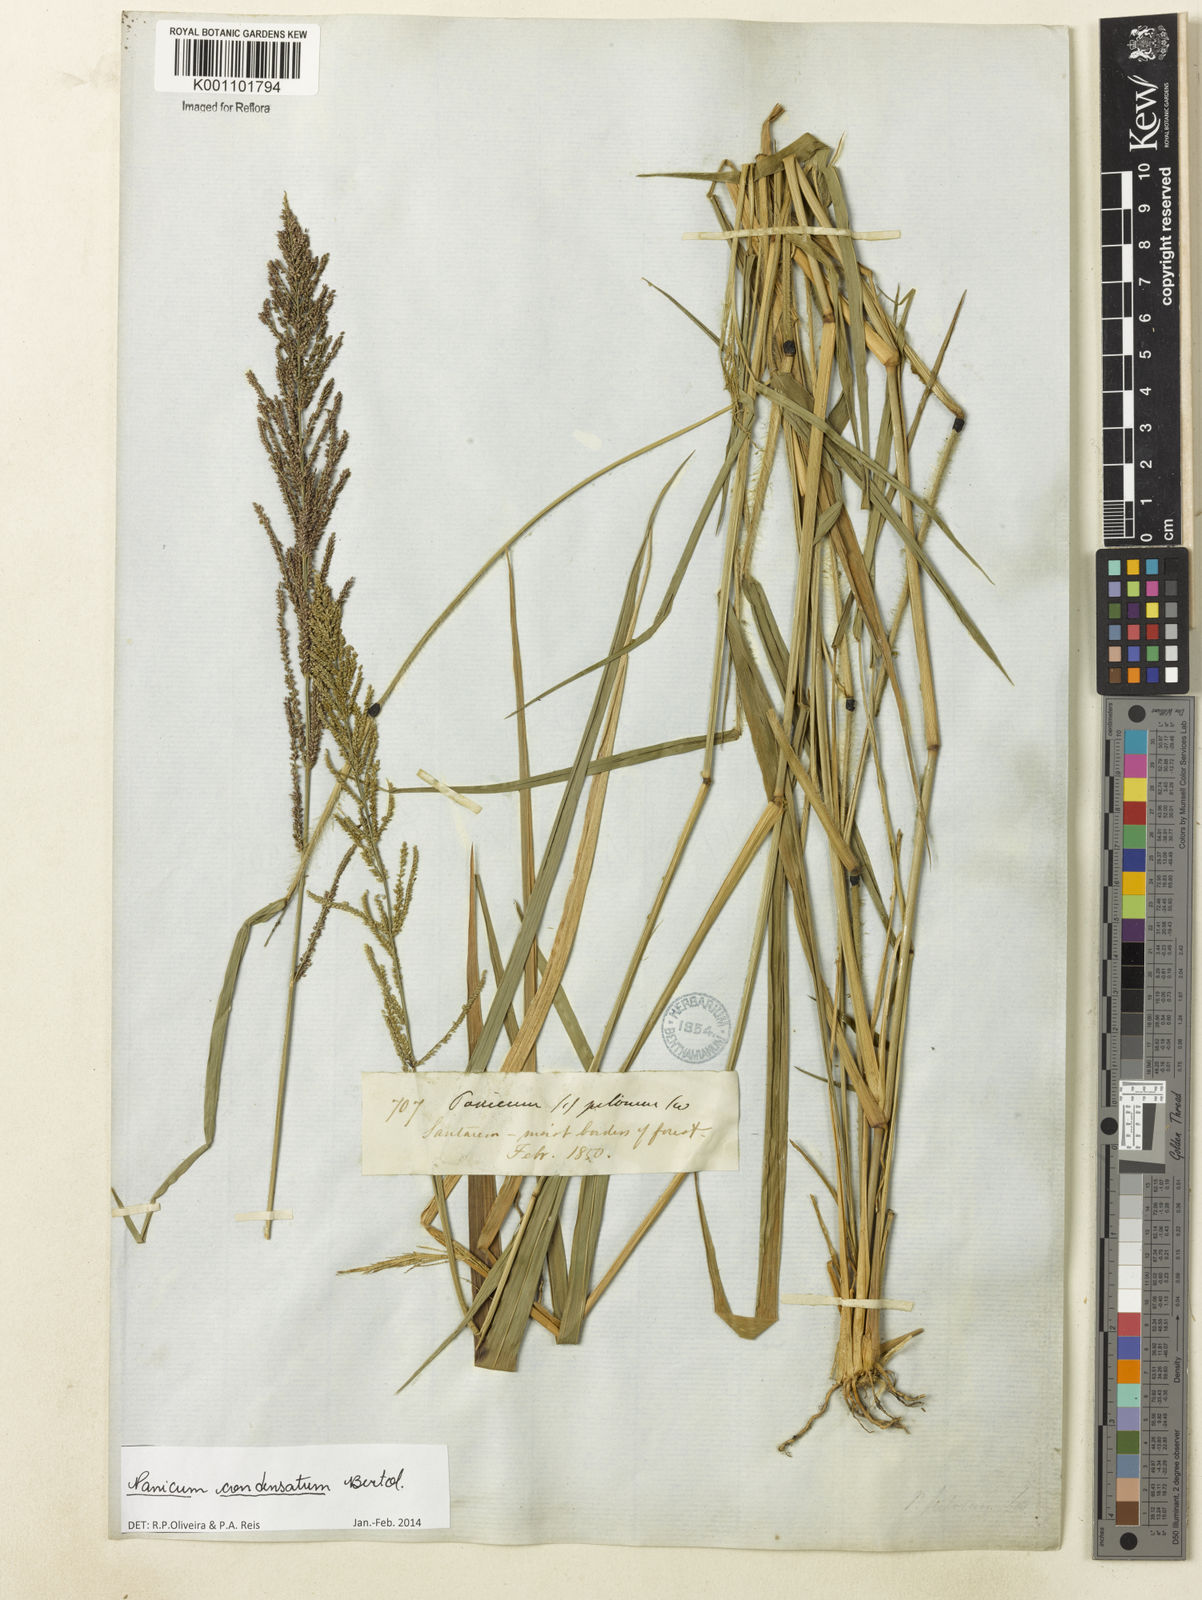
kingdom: Plantae
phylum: Tracheophyta
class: Liliopsida
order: Poales
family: Poaceae
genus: Hymenachne
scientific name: Hymenachne condensata
